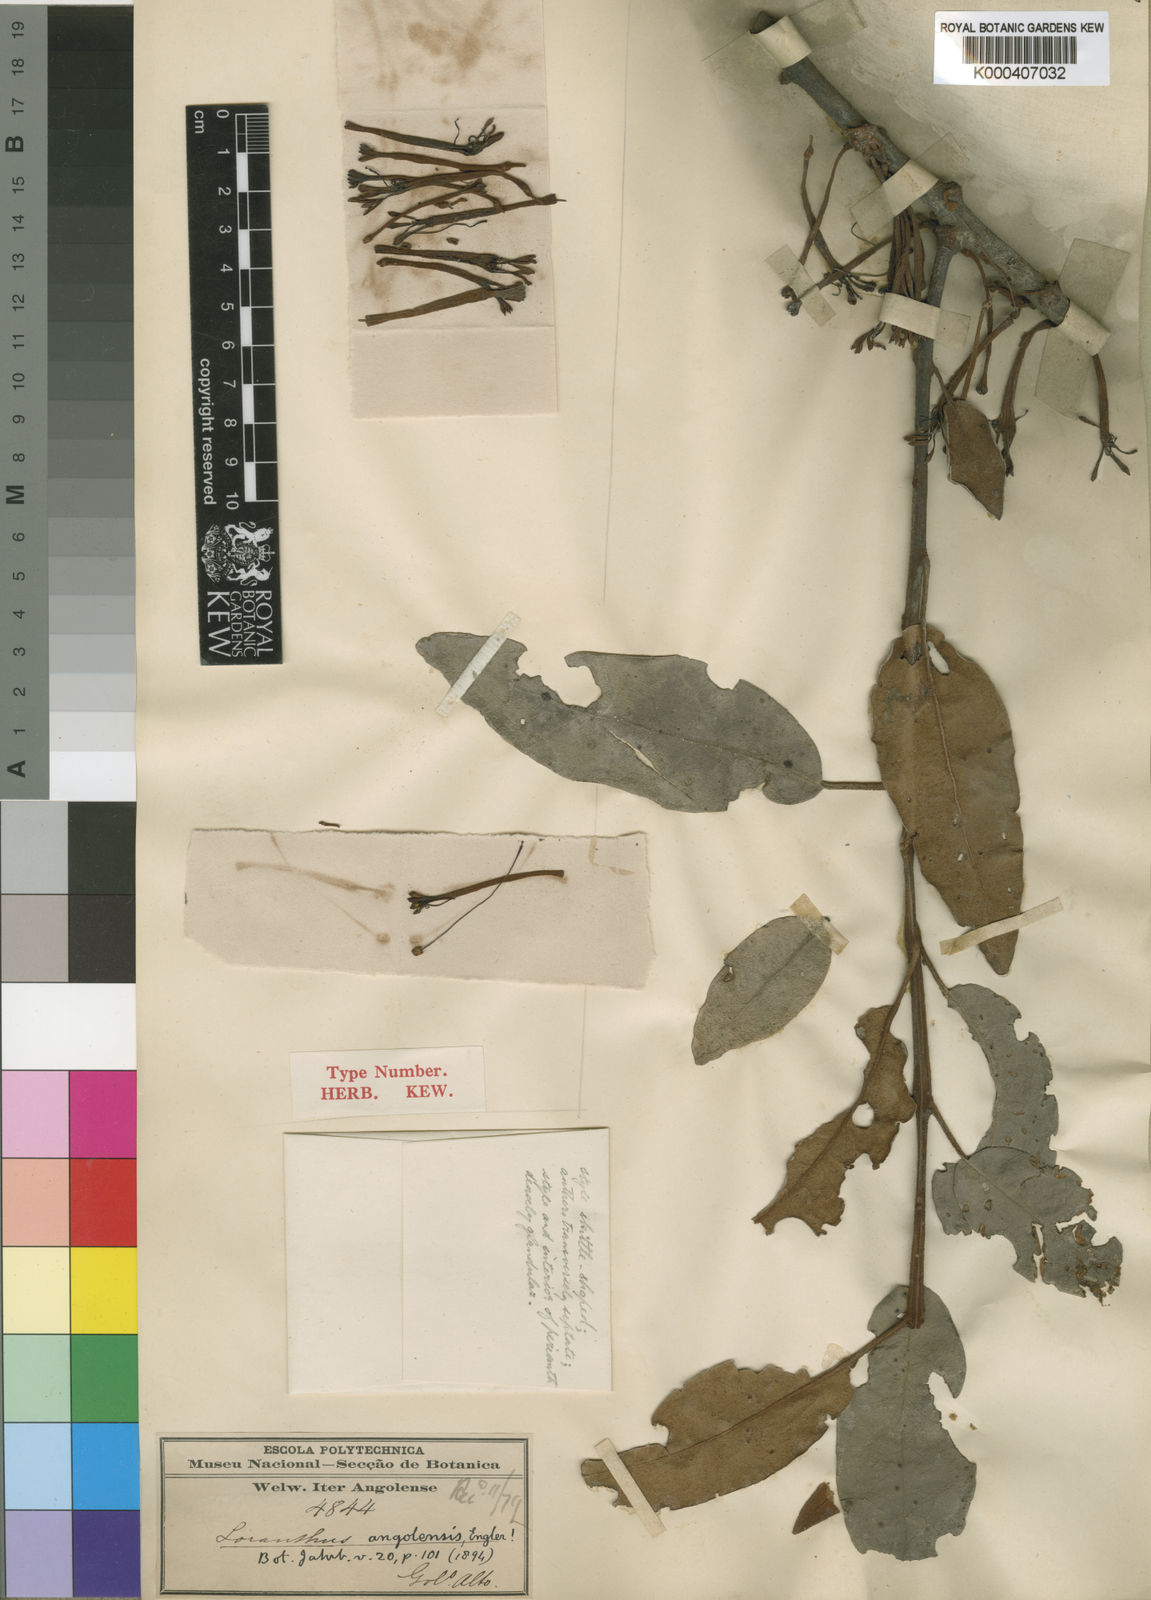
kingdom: Plantae
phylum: Tracheophyta
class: Magnoliopsida
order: Santalales
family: Loranthaceae
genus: Phragmanthera
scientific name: Phragmanthera polycrypta
